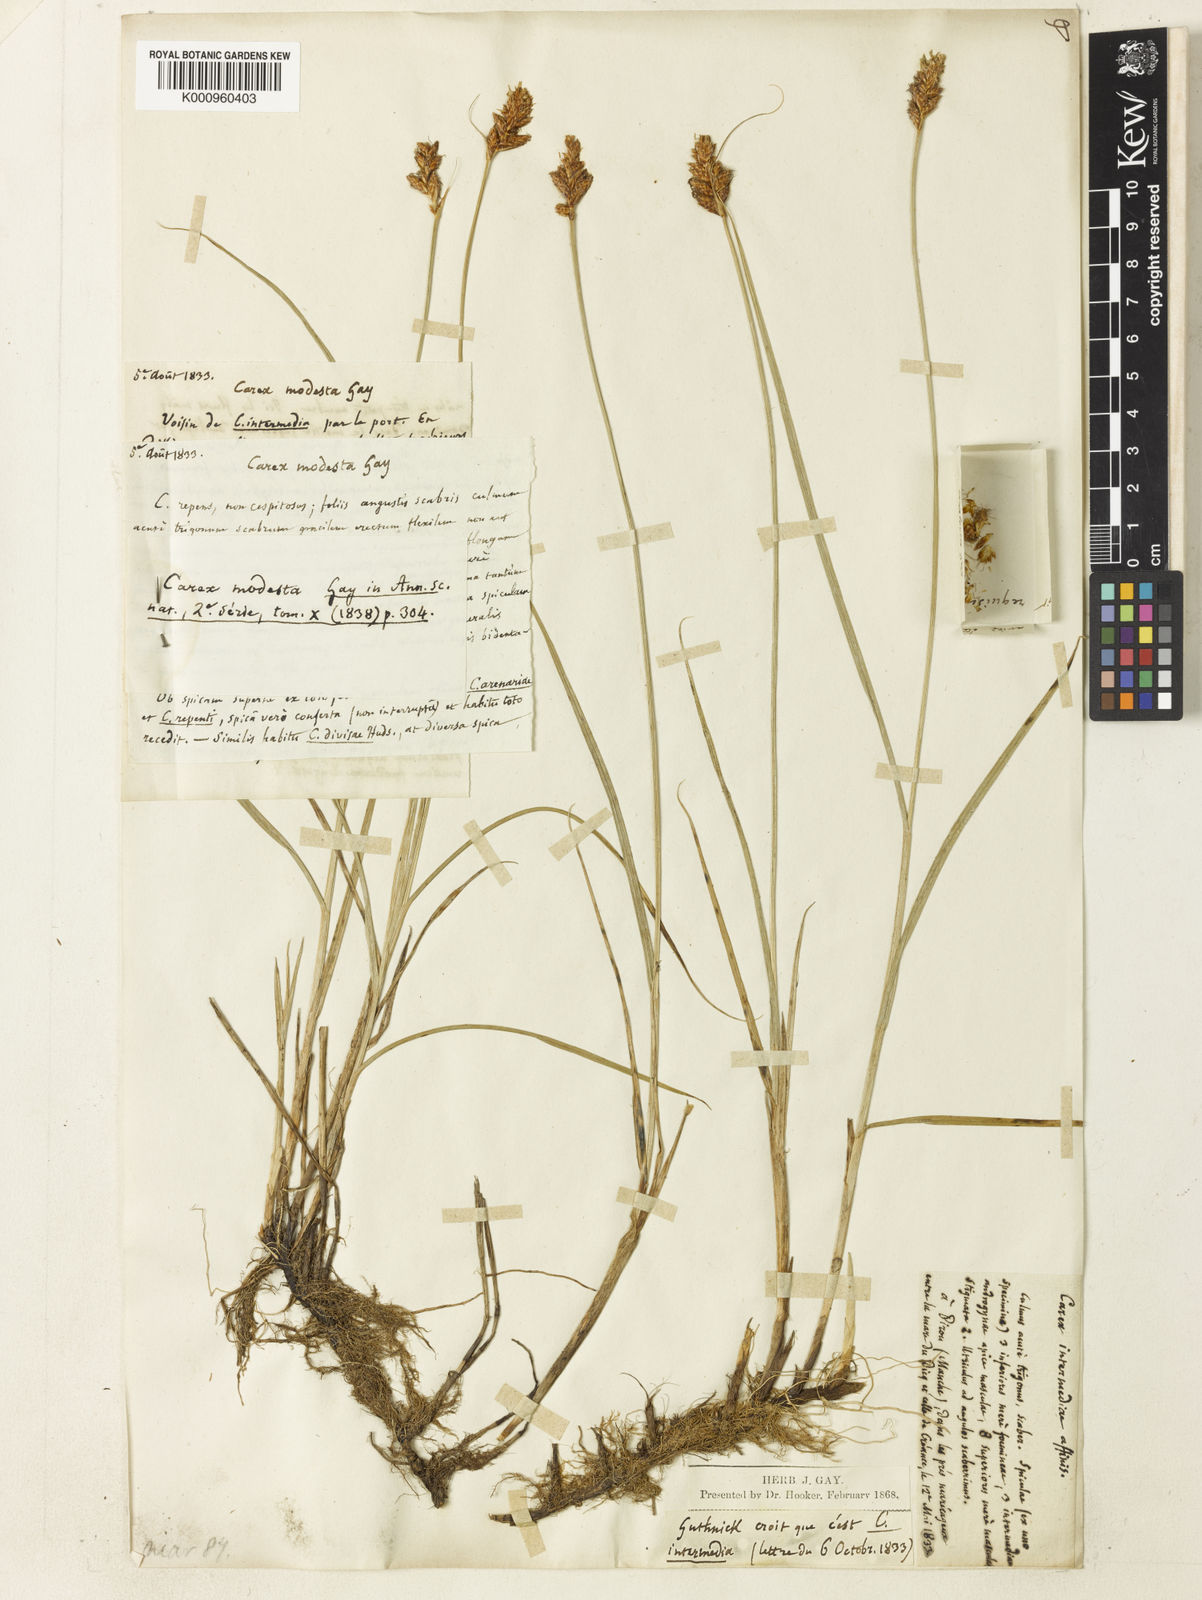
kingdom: Plantae
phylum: Tracheophyta
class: Liliopsida
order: Poales
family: Cyperaceae
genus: Carex
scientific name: Carex disticha
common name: Brown sedge
